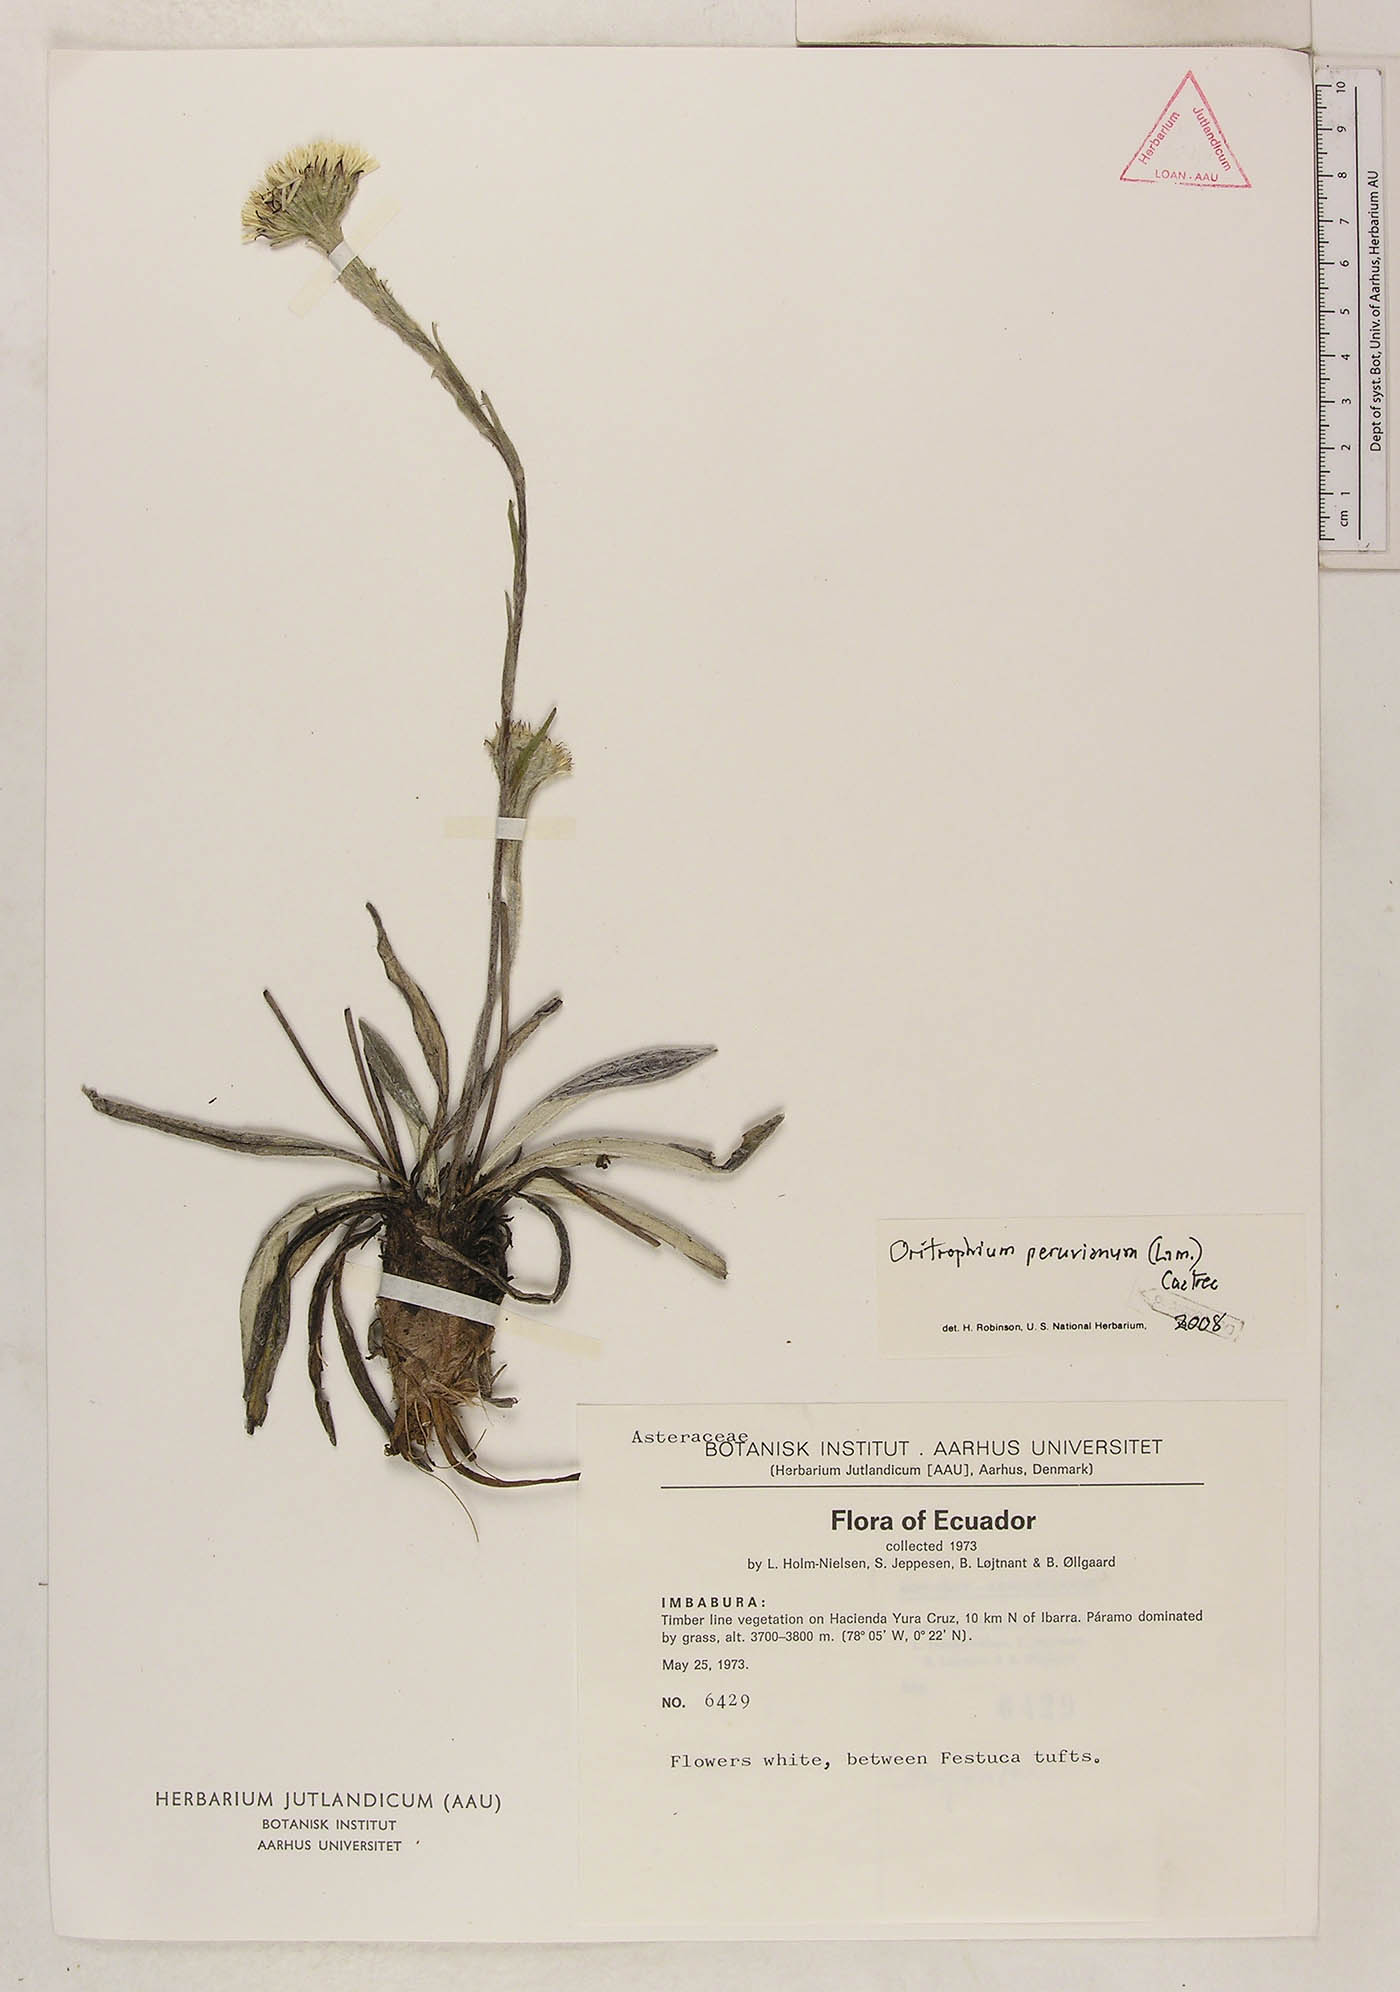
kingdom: Plantae
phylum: Tracheophyta
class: Magnoliopsida
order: Asterales
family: Asteraceae
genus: Oritrophium
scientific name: Oritrophium peruvianum
